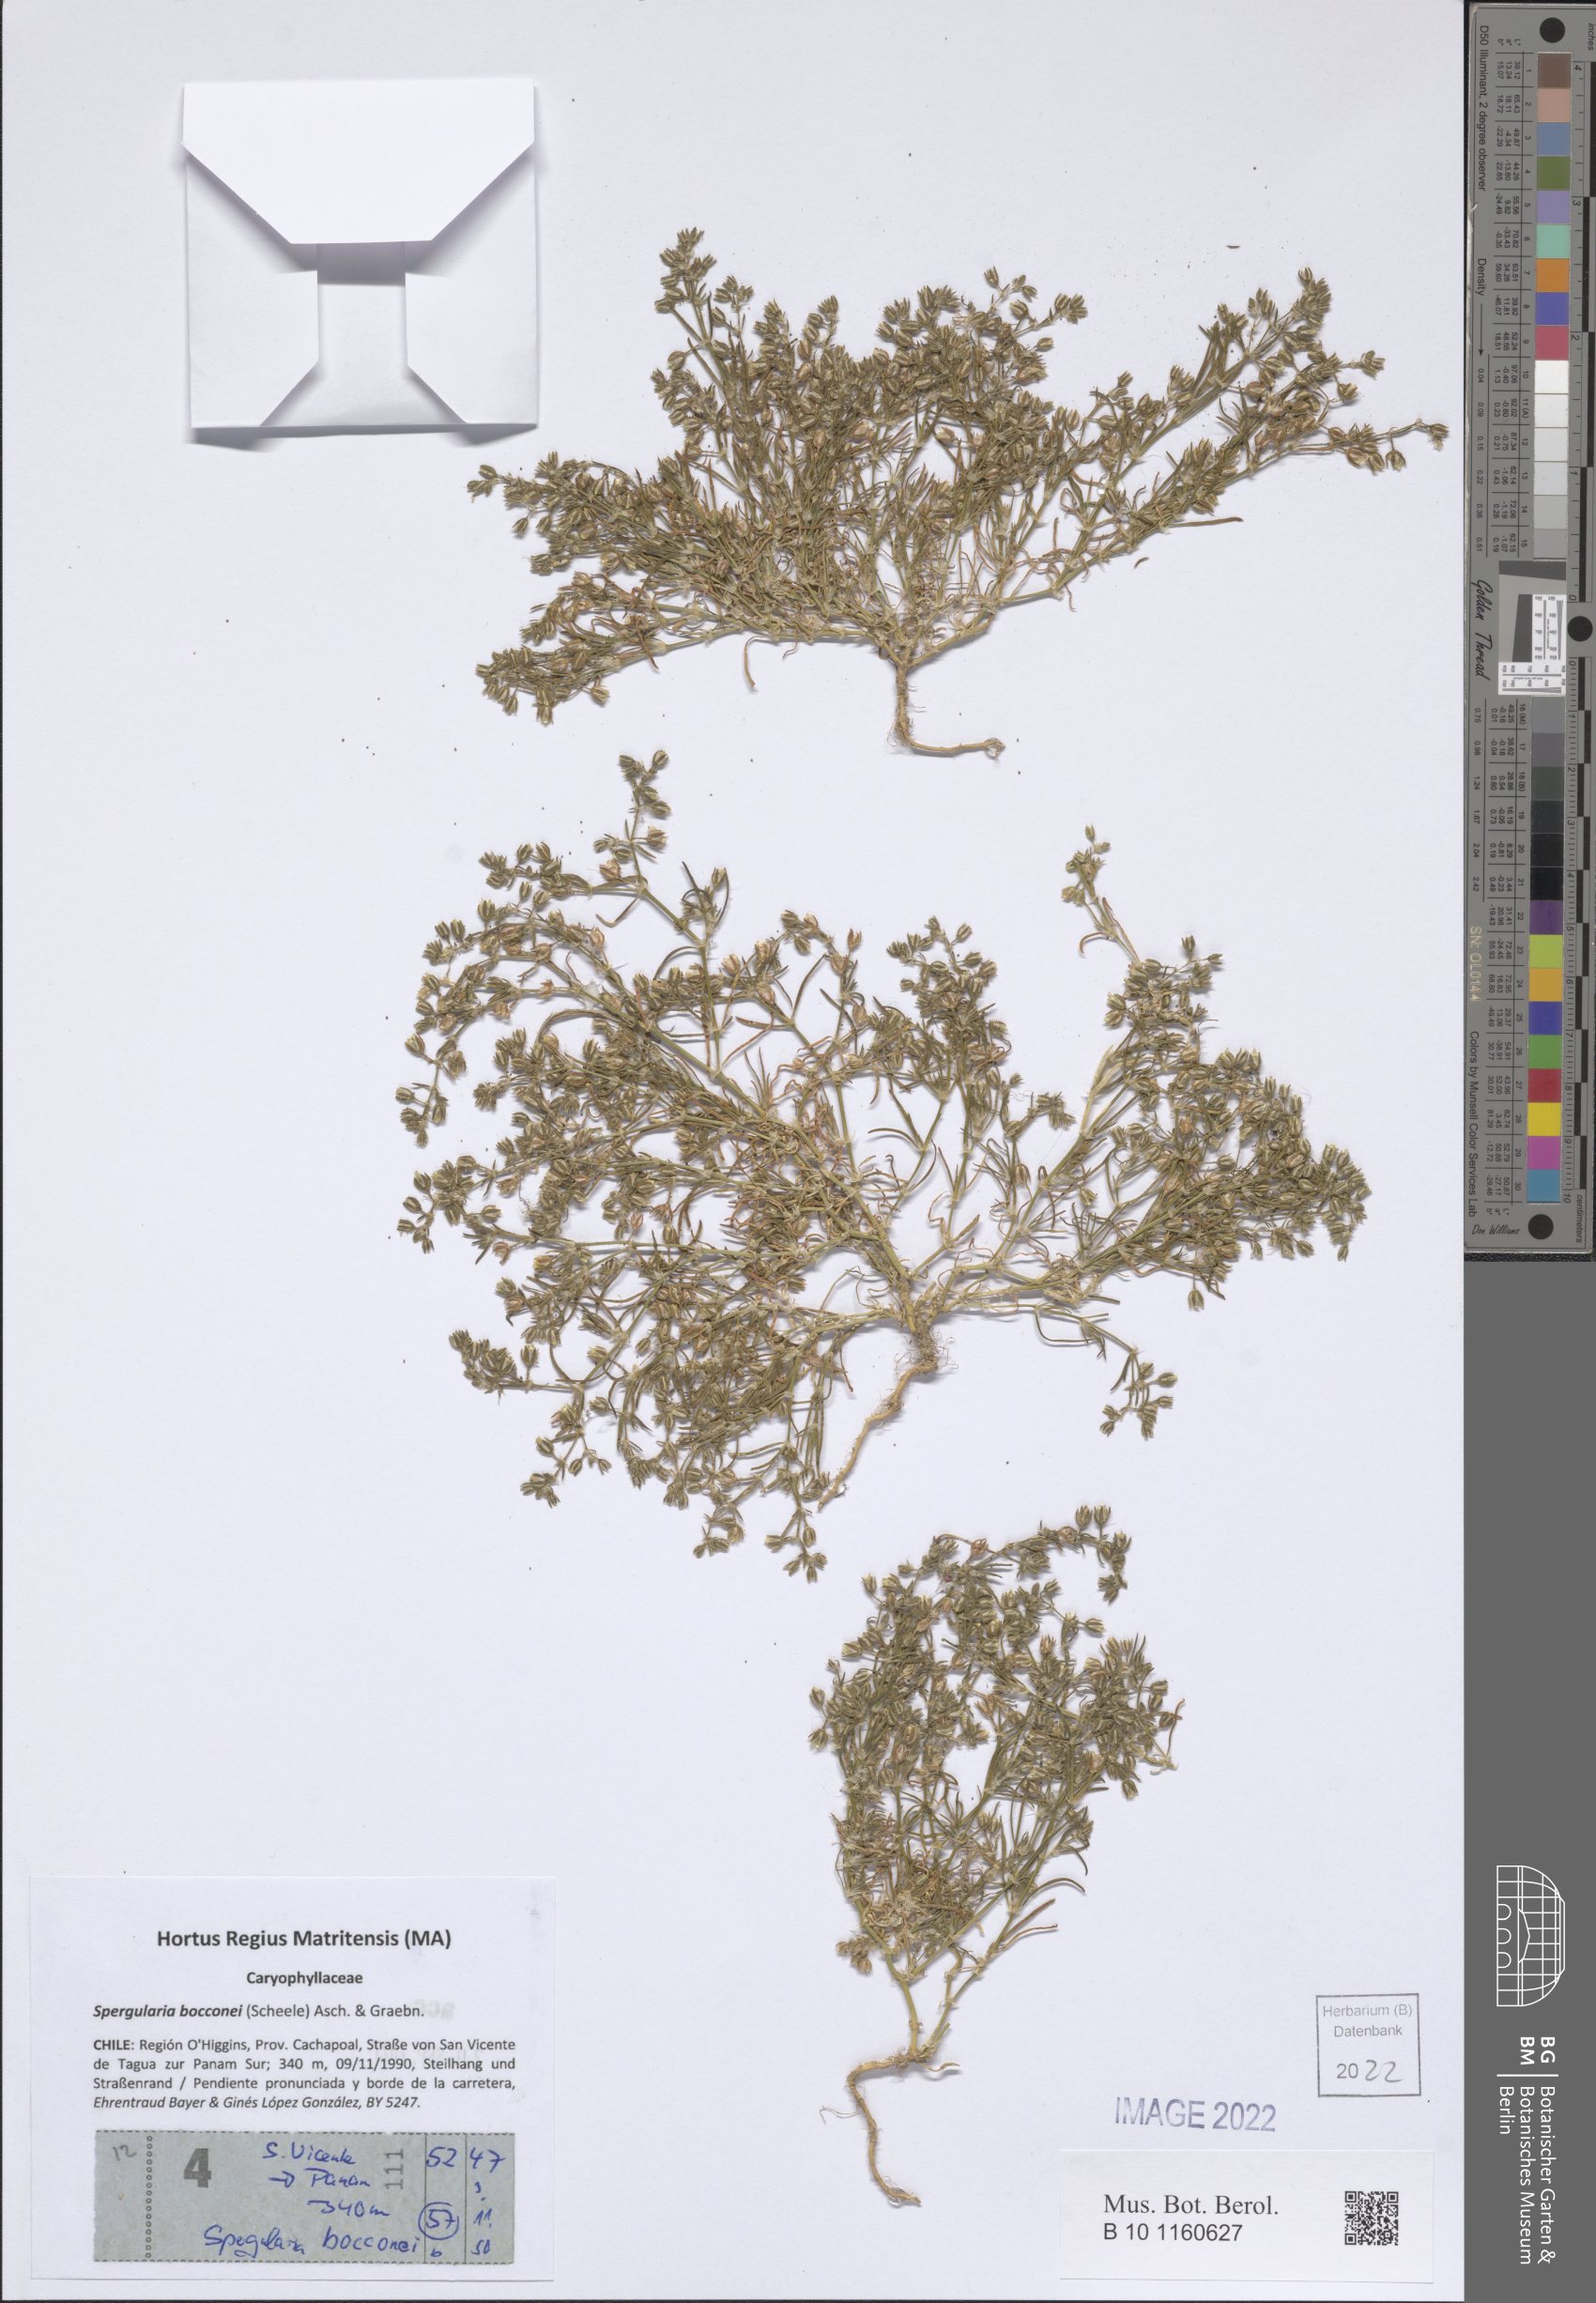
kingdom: Plantae
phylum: Tracheophyta
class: Magnoliopsida
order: Caryophyllales
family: Caryophyllaceae
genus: Spergularia
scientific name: Spergularia bocconei
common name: Greek sea-spurrey
